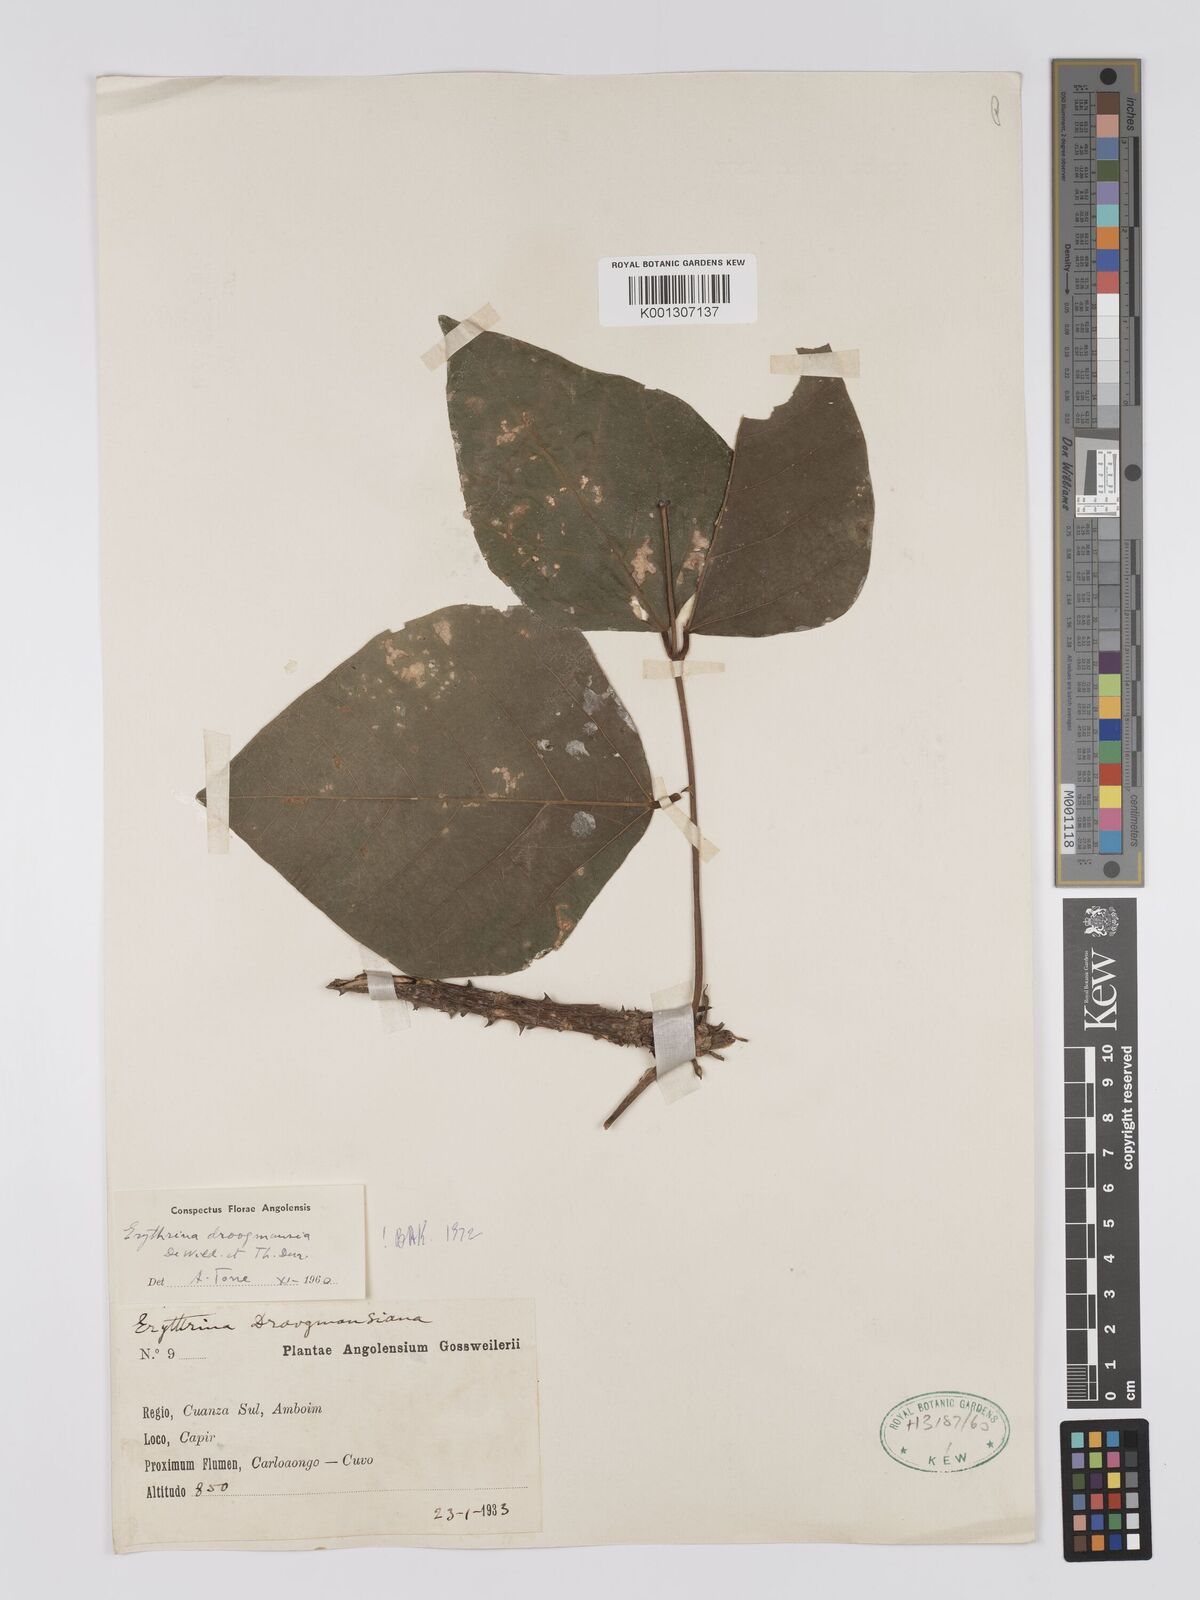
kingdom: Plantae
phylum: Tracheophyta
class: Magnoliopsida
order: Fabales
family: Fabaceae
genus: Erythrina
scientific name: Erythrina droogmansiana
